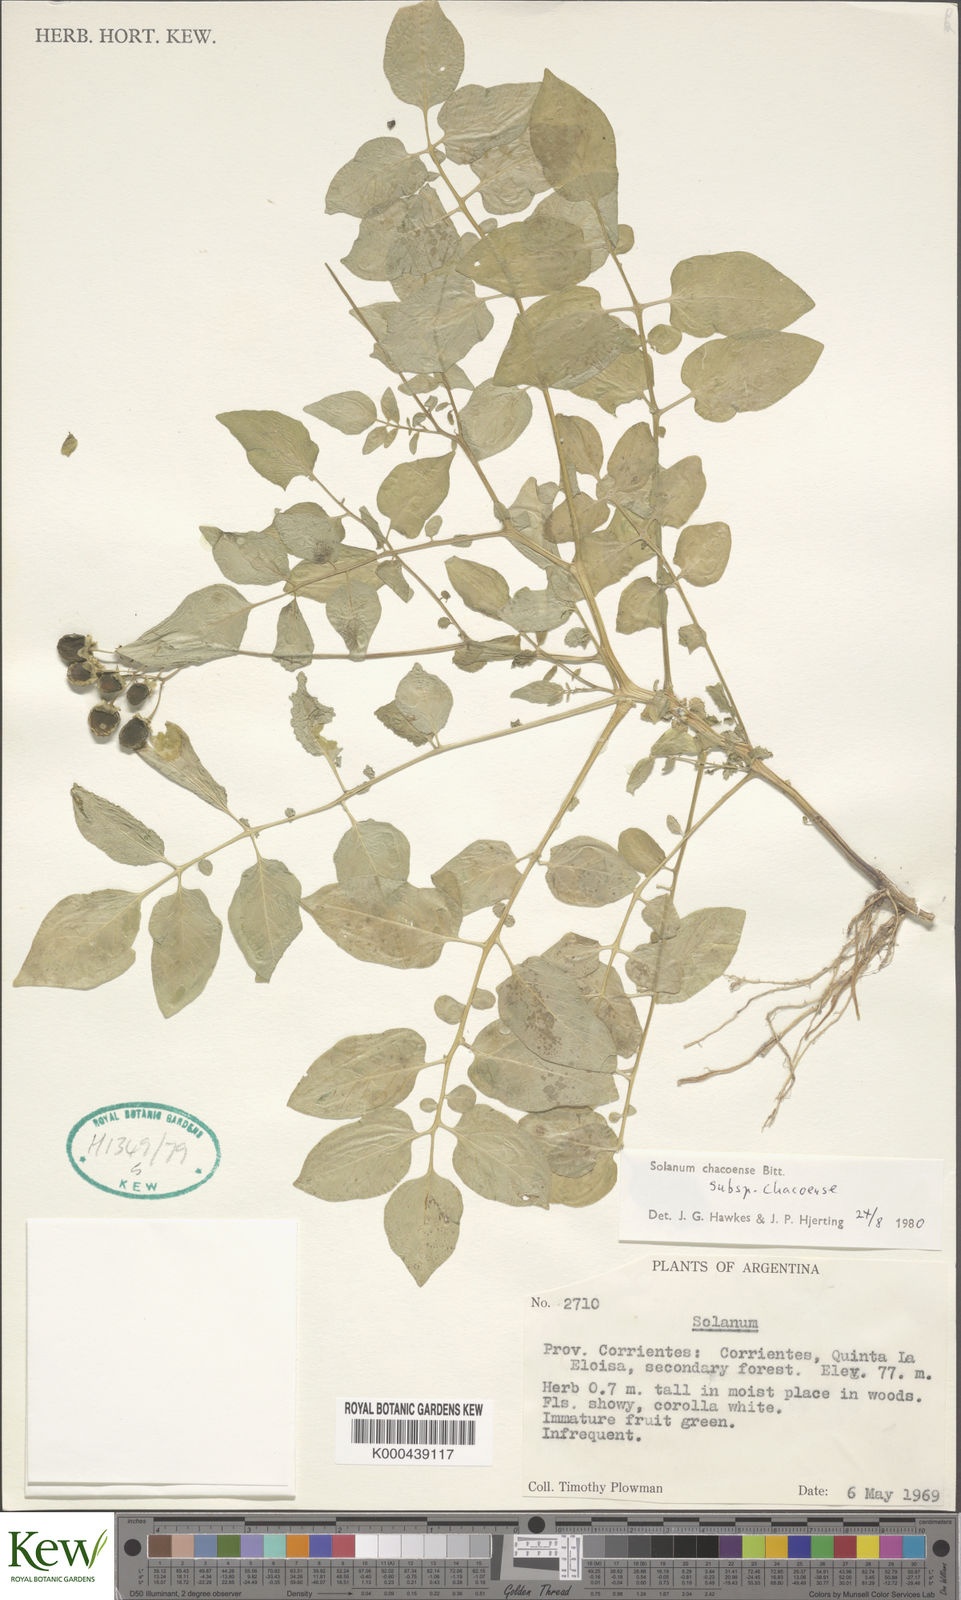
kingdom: Plantae
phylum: Tracheophyta
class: Magnoliopsida
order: Solanales
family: Solanaceae
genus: Solanum
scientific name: Solanum chacoense
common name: Chaco potato
